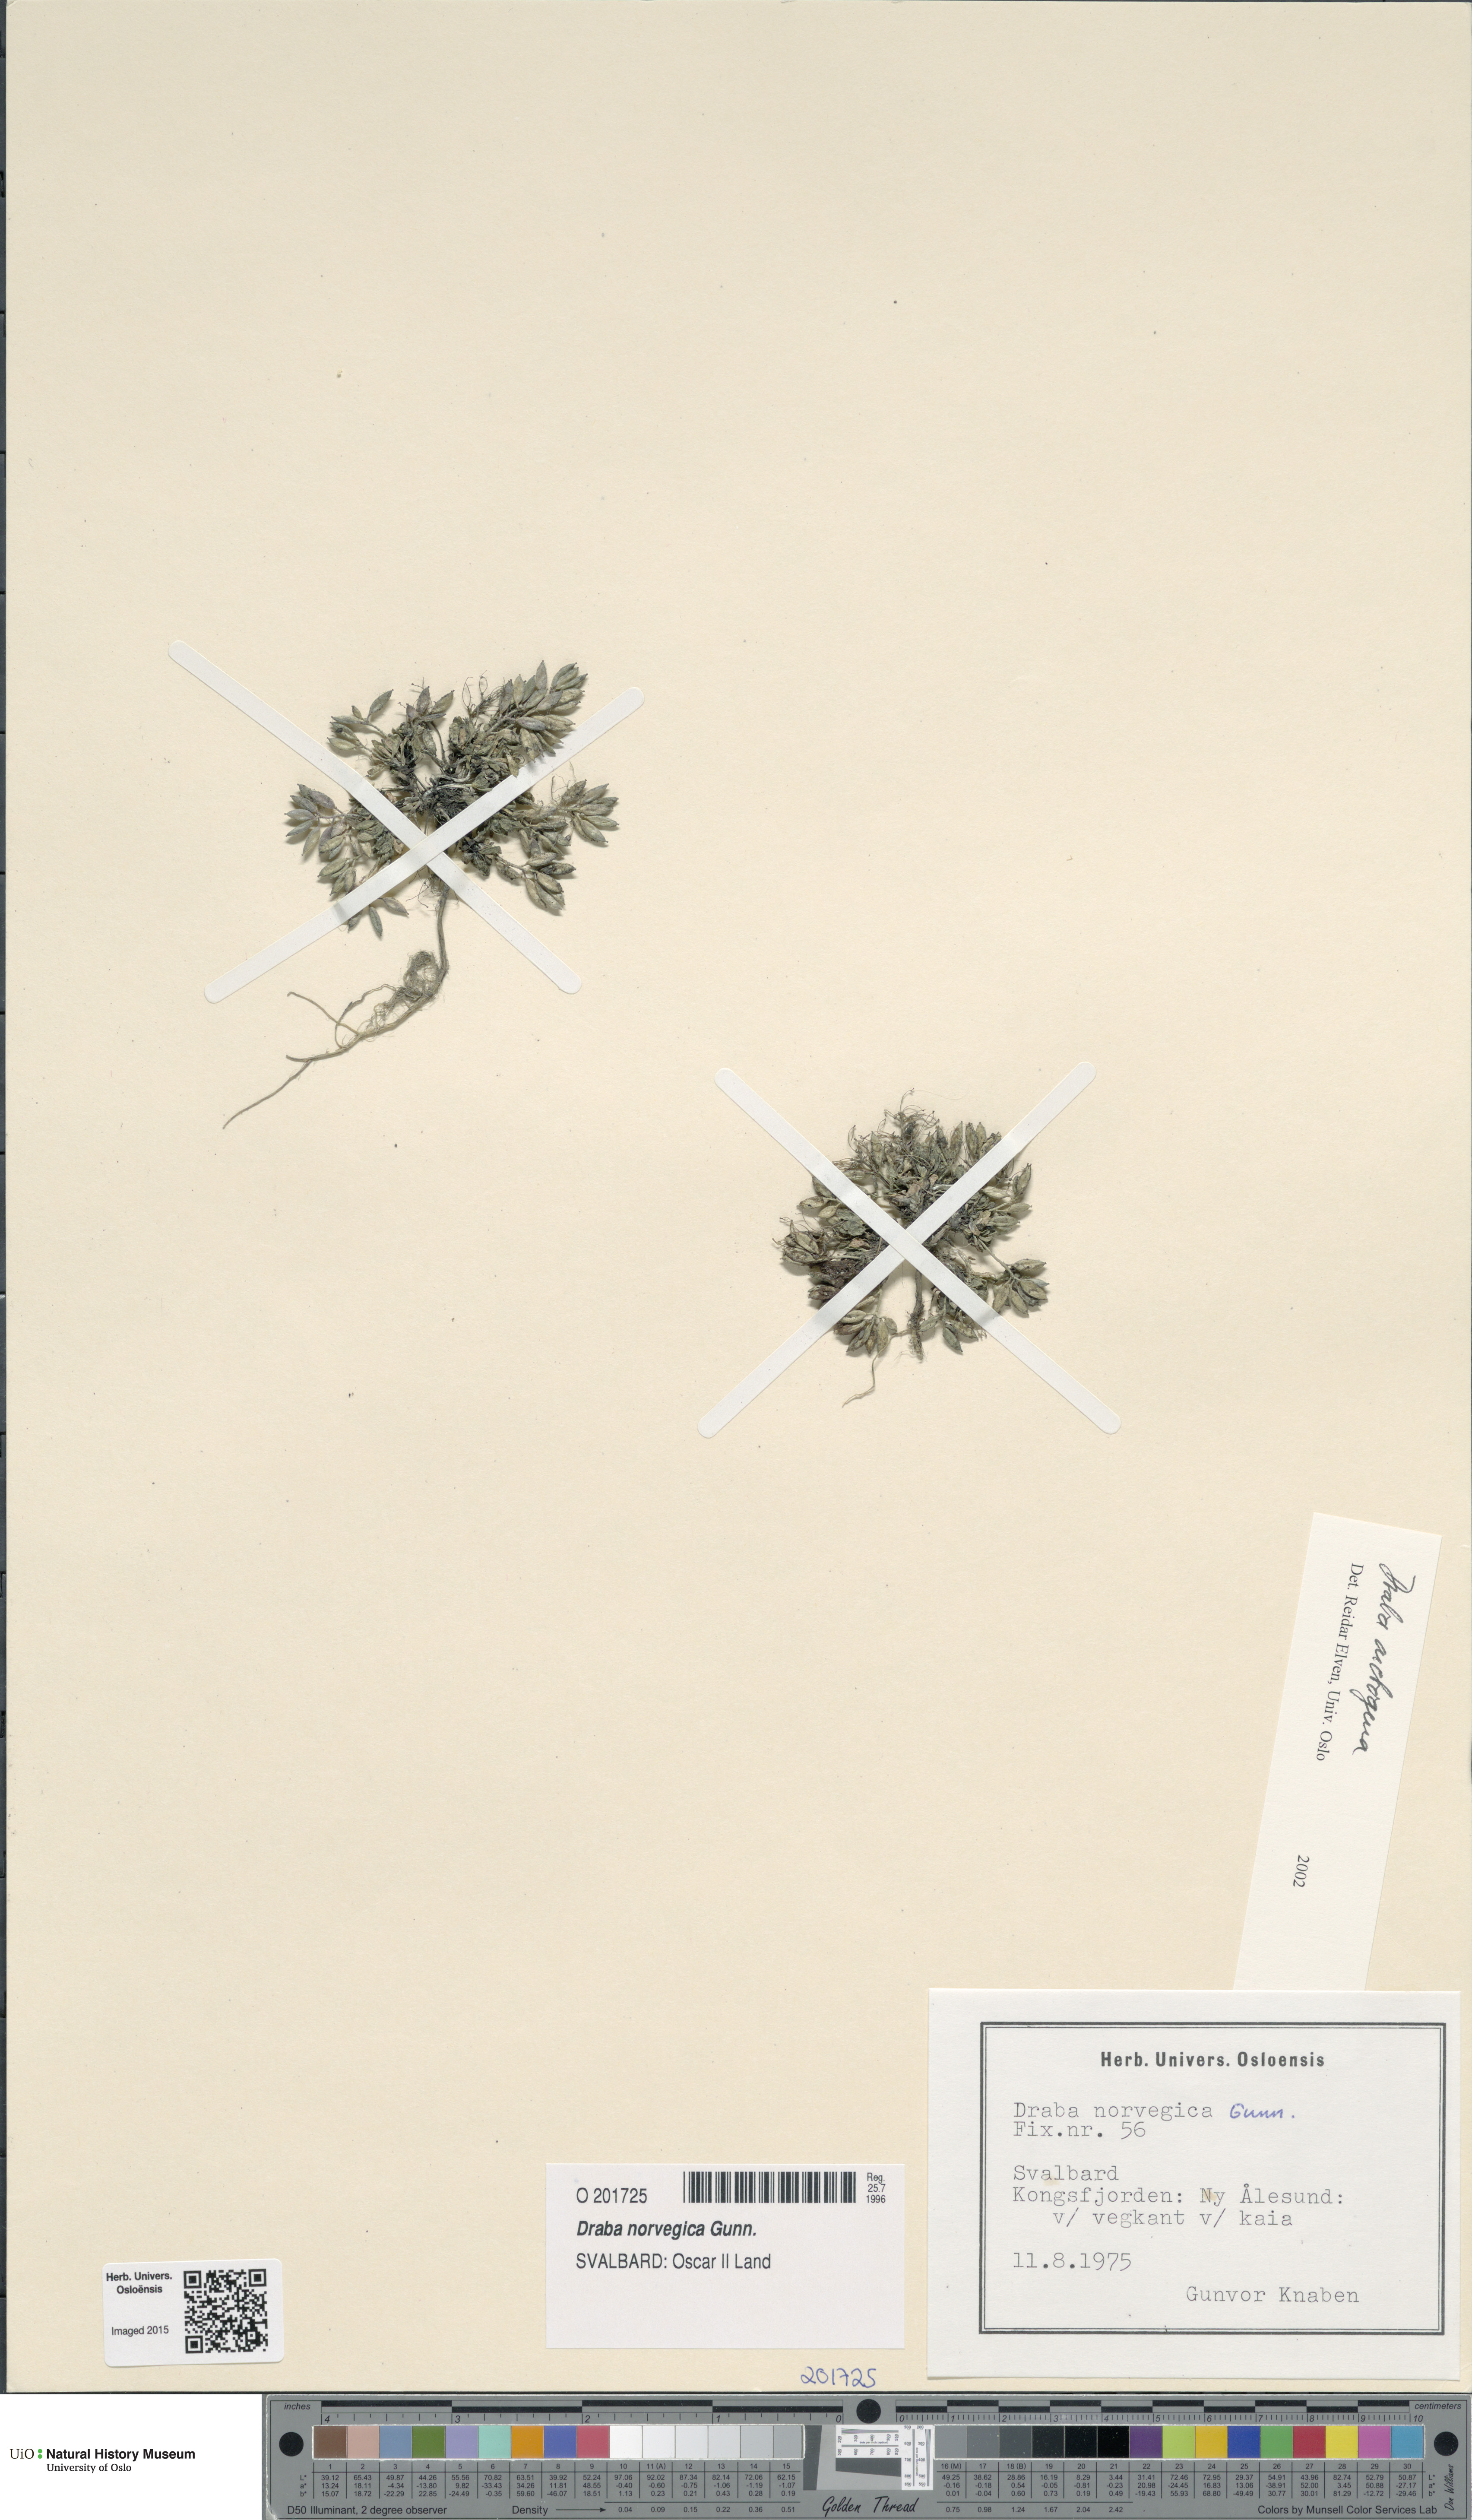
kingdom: Plantae
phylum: Tracheophyta
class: Magnoliopsida
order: Brassicales
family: Brassicaceae
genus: Draba
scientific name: Draba norvegica
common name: Rock whitlowgrass
